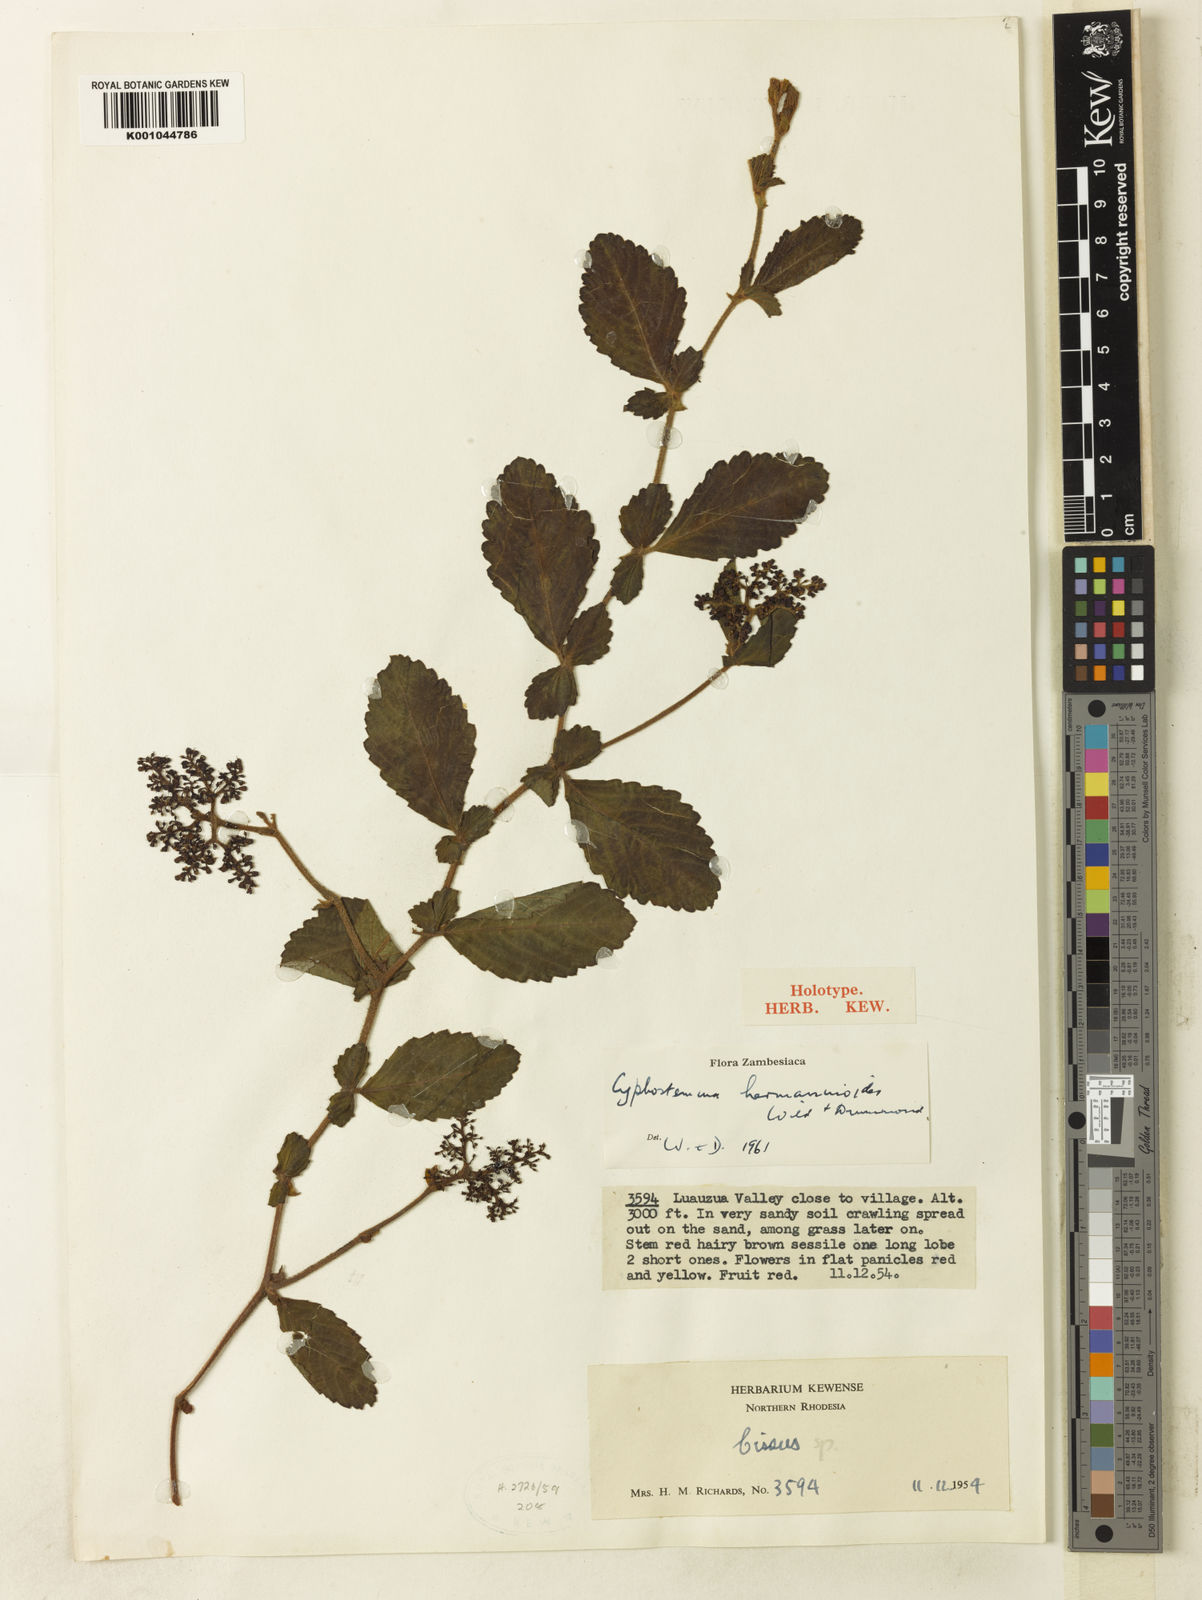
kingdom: Plantae
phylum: Tracheophyta
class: Magnoliopsida
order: Vitales
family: Vitaceae
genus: Cyphostemma
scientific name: Cyphostemma wittei
